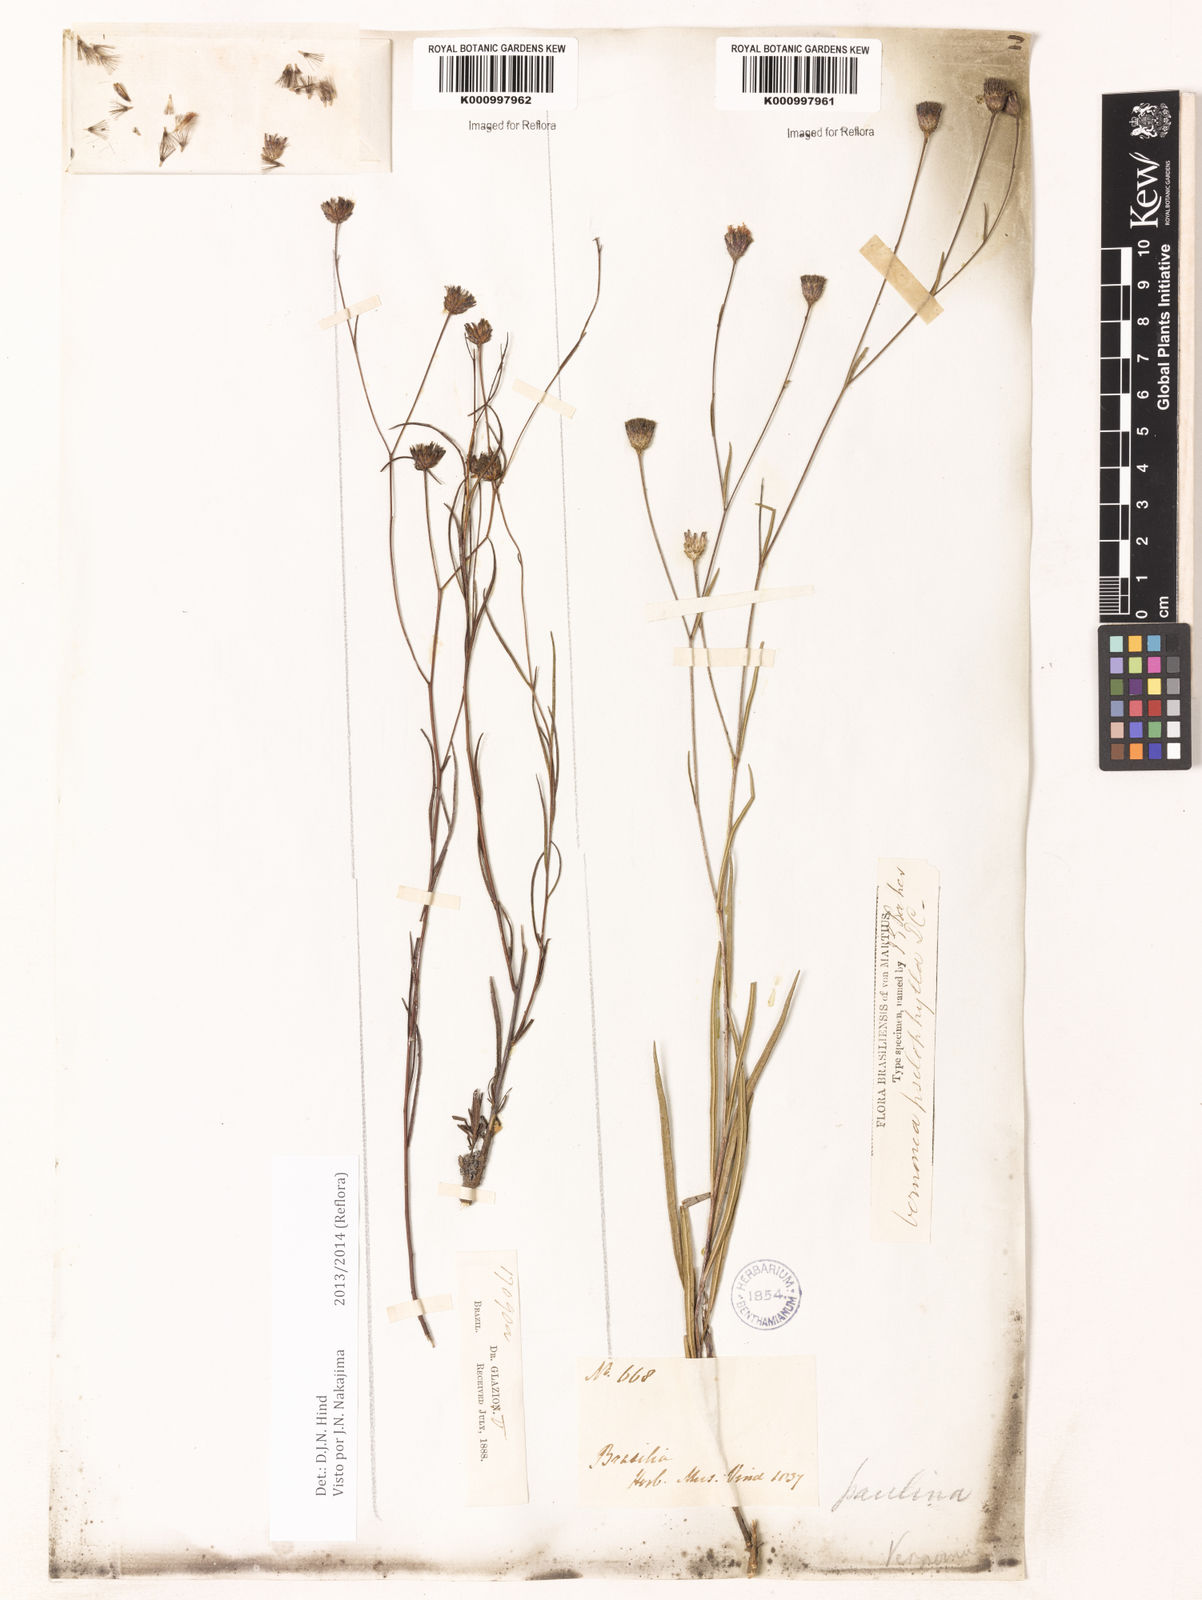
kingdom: Plantae
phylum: Tracheophyta
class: Magnoliopsida
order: Asterales
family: Asteraceae
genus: Lessingianthus
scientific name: Lessingianthus psilophyllus
